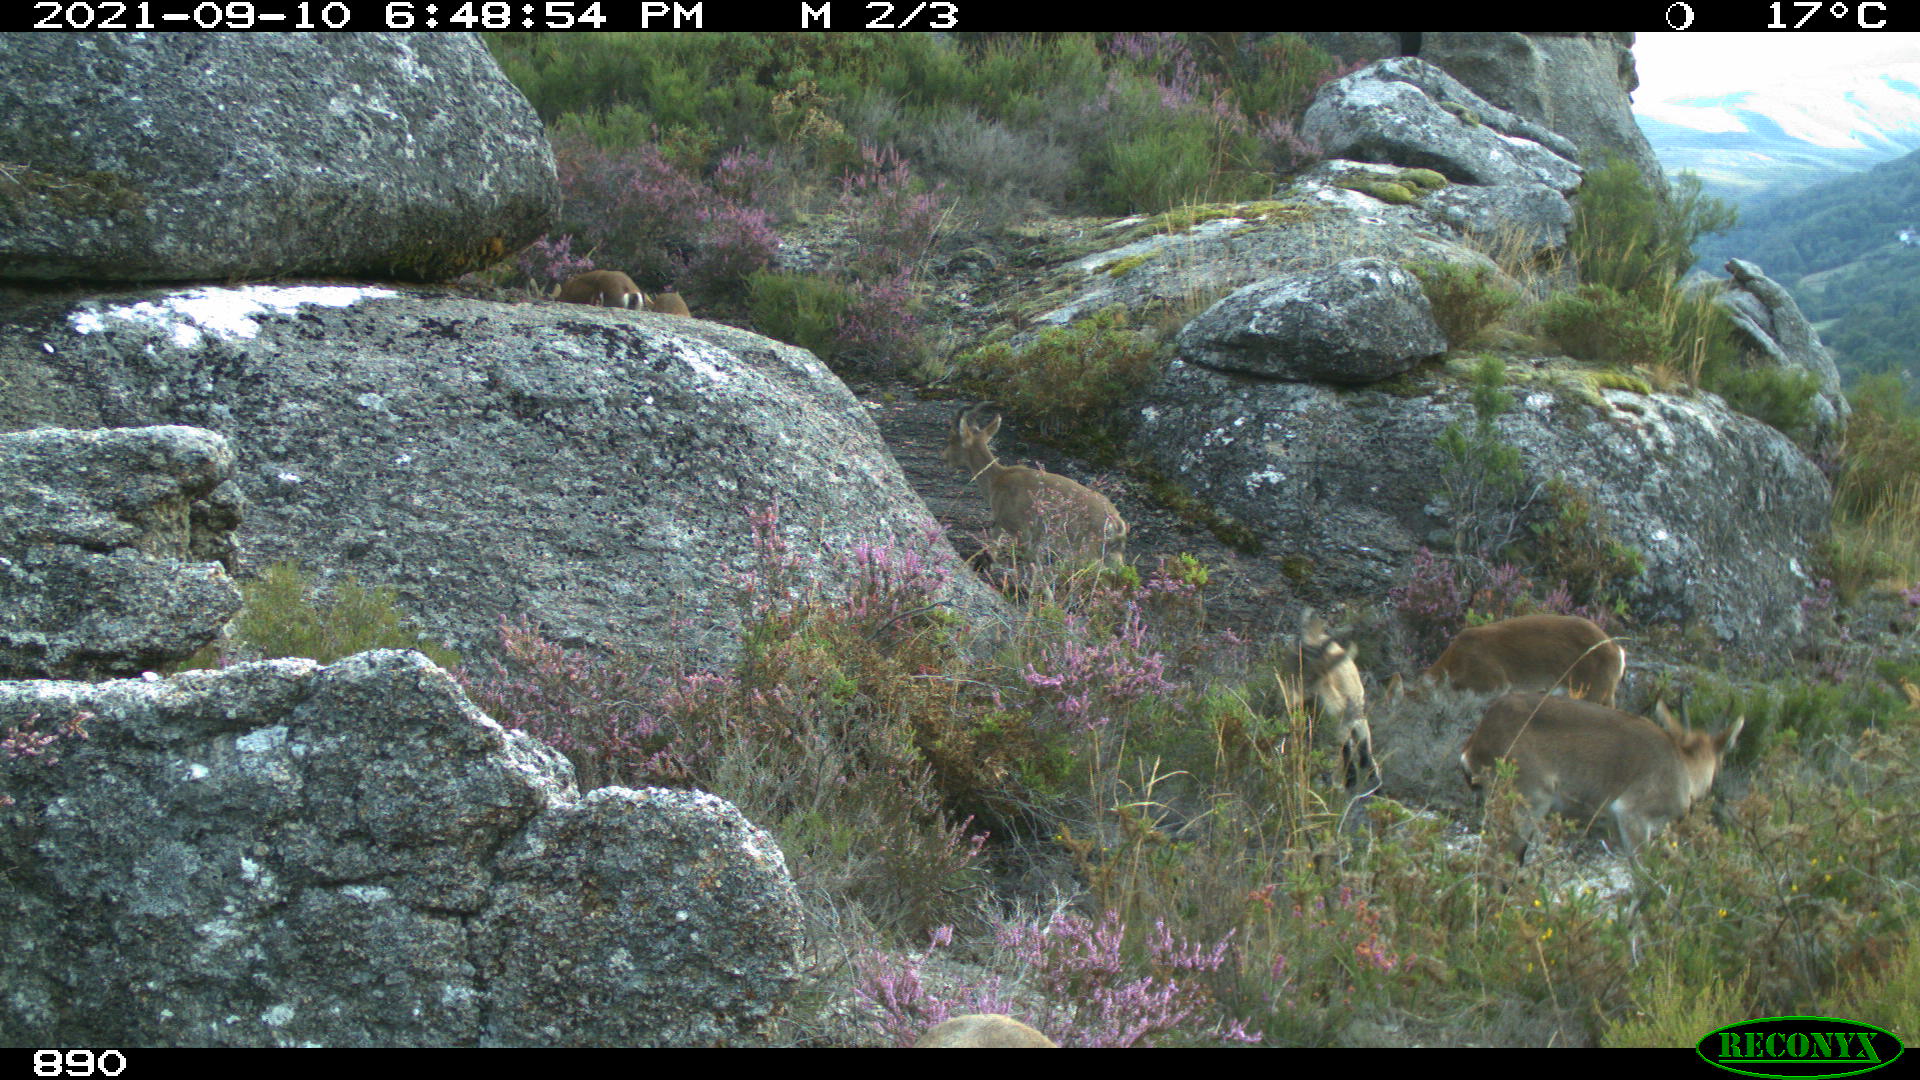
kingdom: Animalia
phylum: Chordata
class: Mammalia
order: Artiodactyla
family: Bovidae
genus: Capra
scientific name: Capra pyrenaica
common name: Spanish ibex
